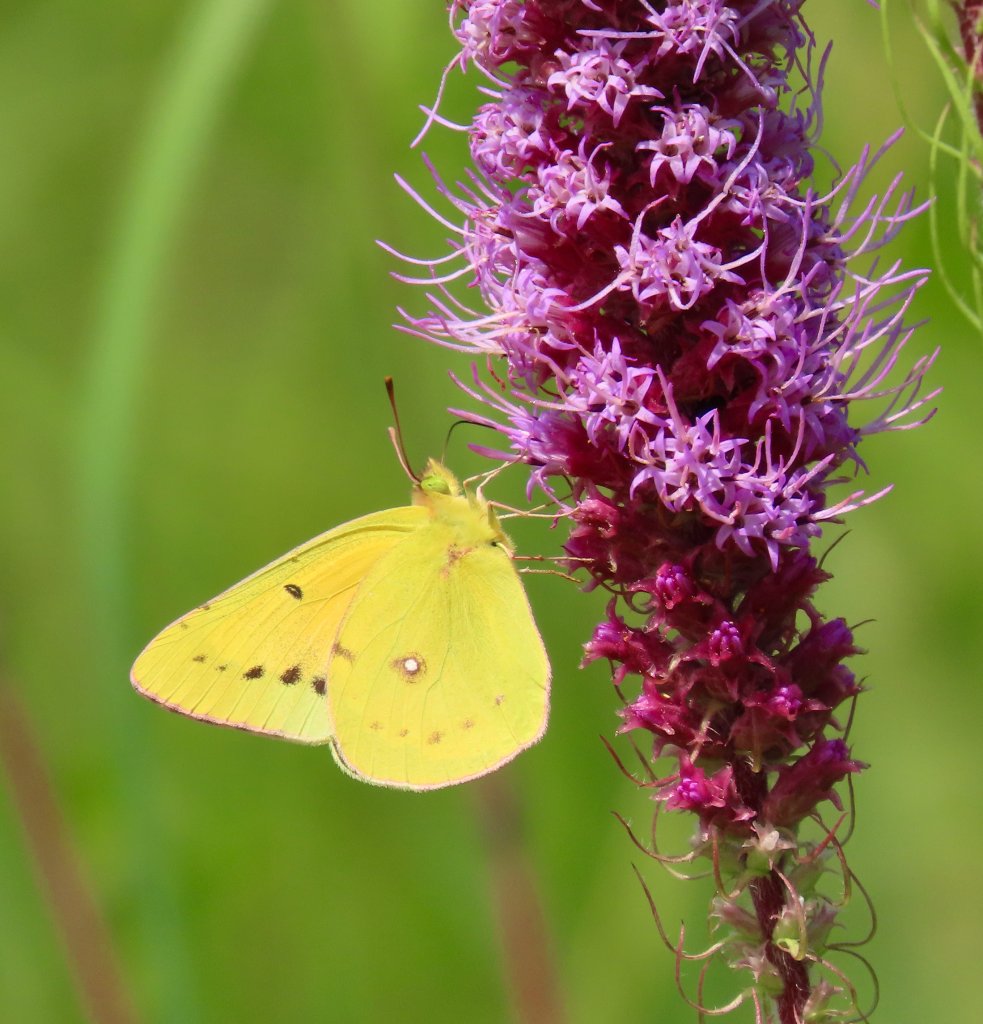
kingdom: Animalia
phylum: Arthropoda
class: Insecta
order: Lepidoptera
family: Pieridae
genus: Colias
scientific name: Colias eurytheme
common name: Orange Sulphur
